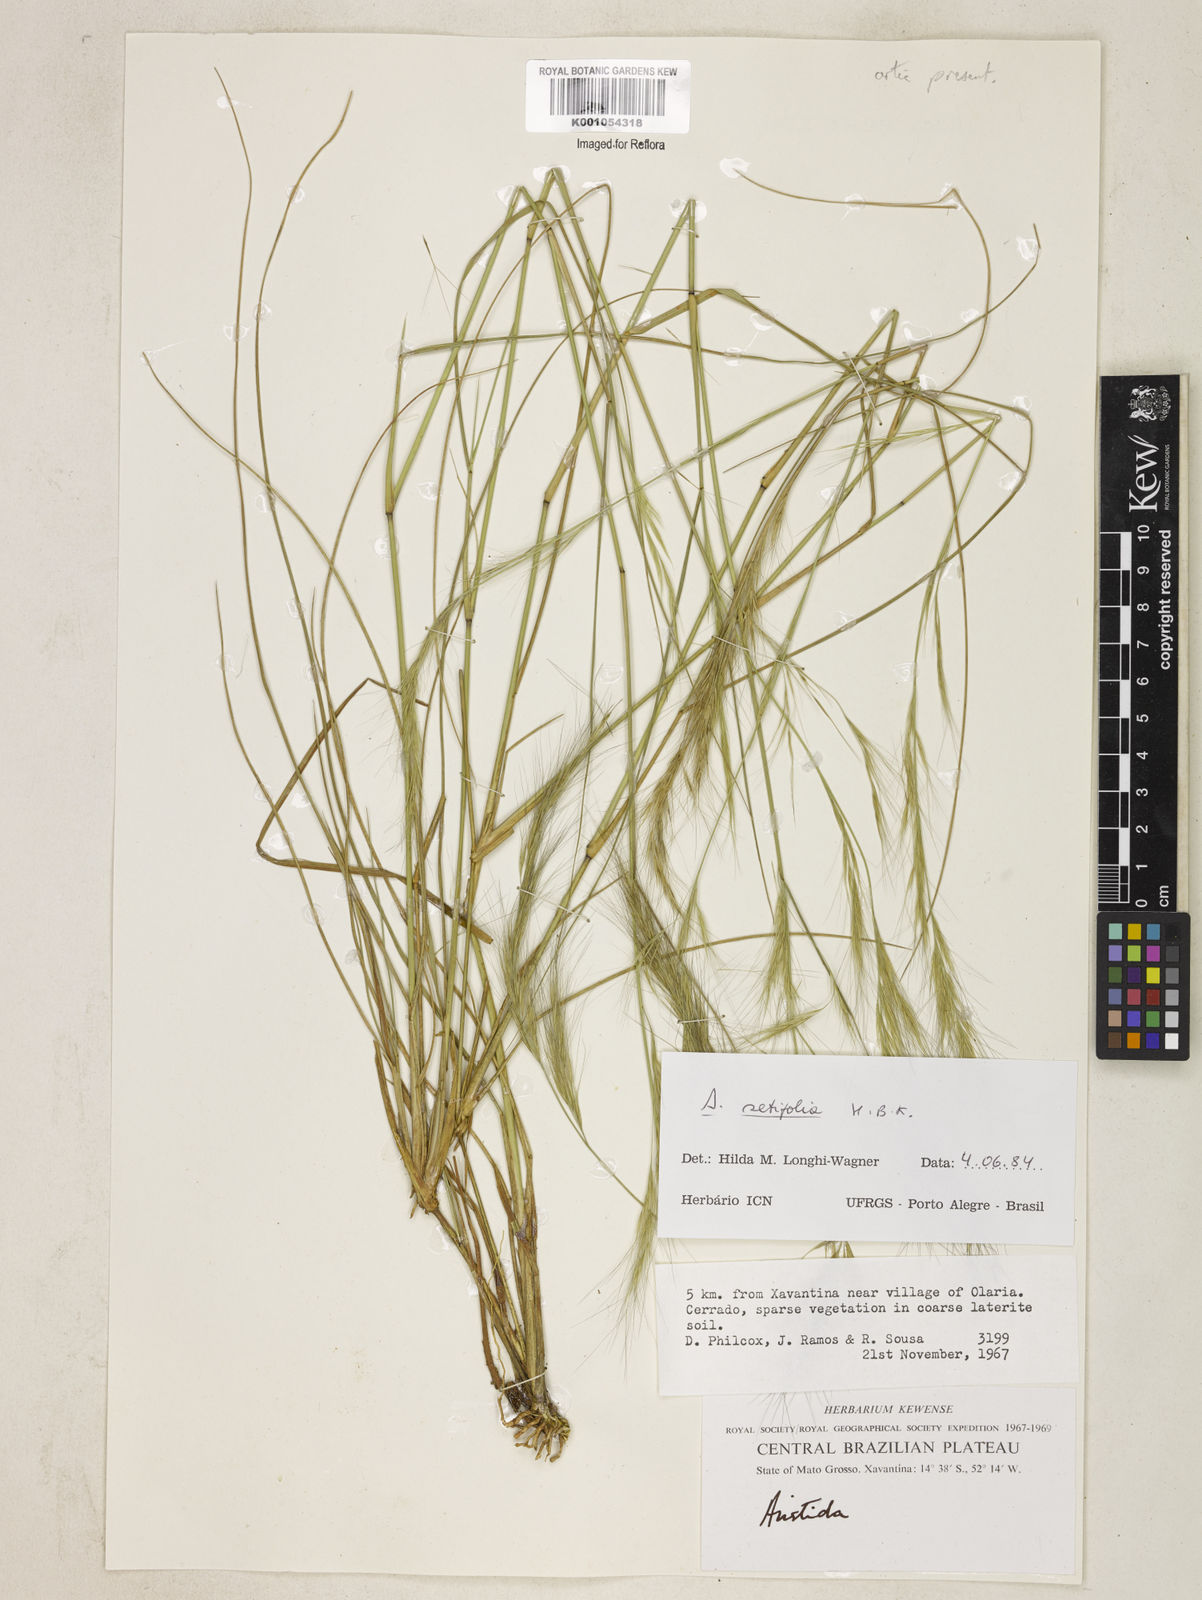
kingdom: Plantae
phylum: Tracheophyta
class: Liliopsida
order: Poales
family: Poaceae
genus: Aristida
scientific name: Aristida setifolia
